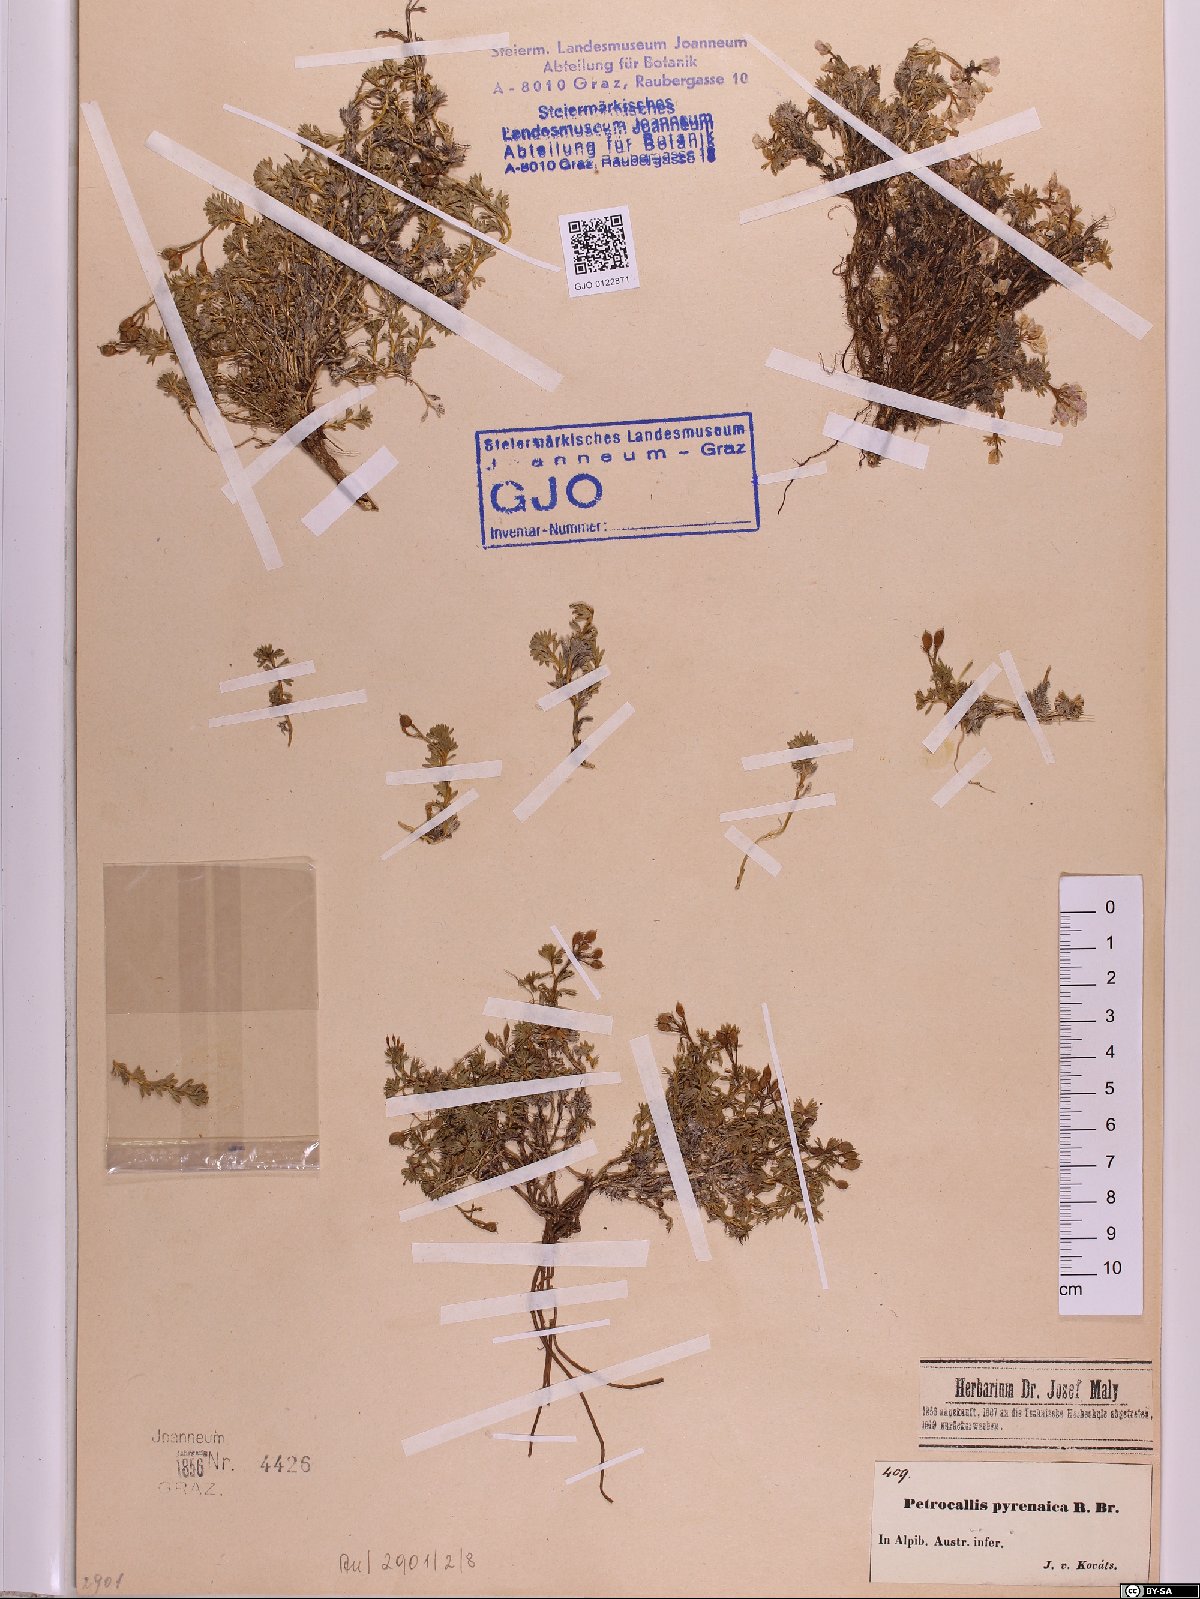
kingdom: Plantae
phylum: Tracheophyta
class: Magnoliopsida
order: Brassicales
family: Brassicaceae
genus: Petrocallis
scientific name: Petrocallis pyrenaica
